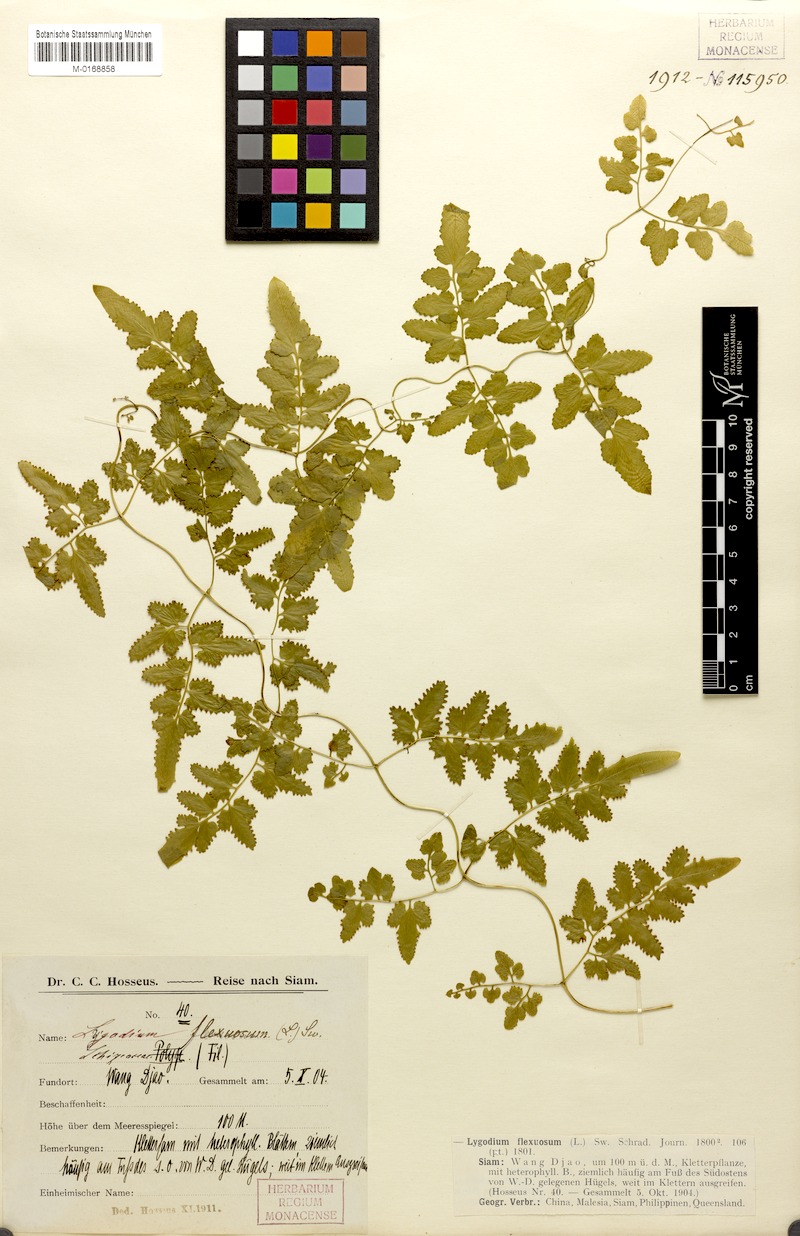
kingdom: Plantae
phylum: Tracheophyta
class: Polypodiopsida
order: Schizaeales
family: Lygodiaceae
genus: Lygodium
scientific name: Lygodium flexuosum
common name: Maidenhair creeper
